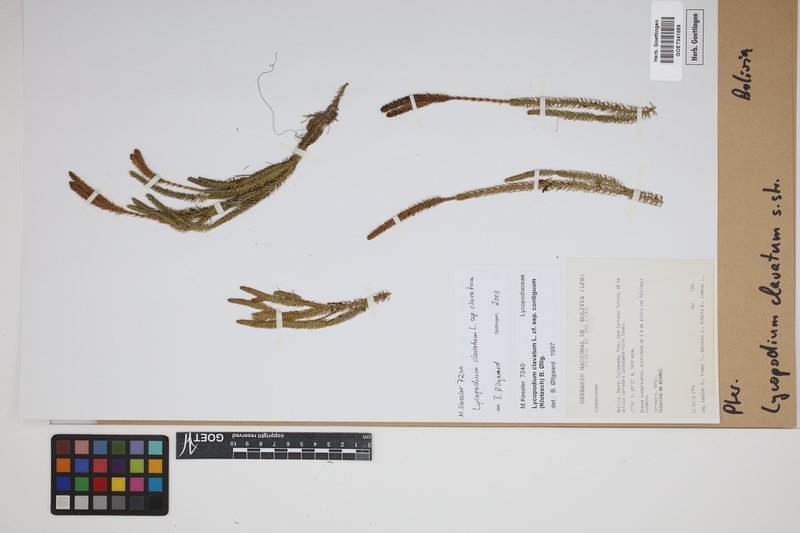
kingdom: Plantae
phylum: Tracheophyta
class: Lycopodiopsida
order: Lycopodiales
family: Lycopodiaceae
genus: Lycopodium
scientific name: Lycopodium clavatum
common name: Stag's-horn clubmoss
